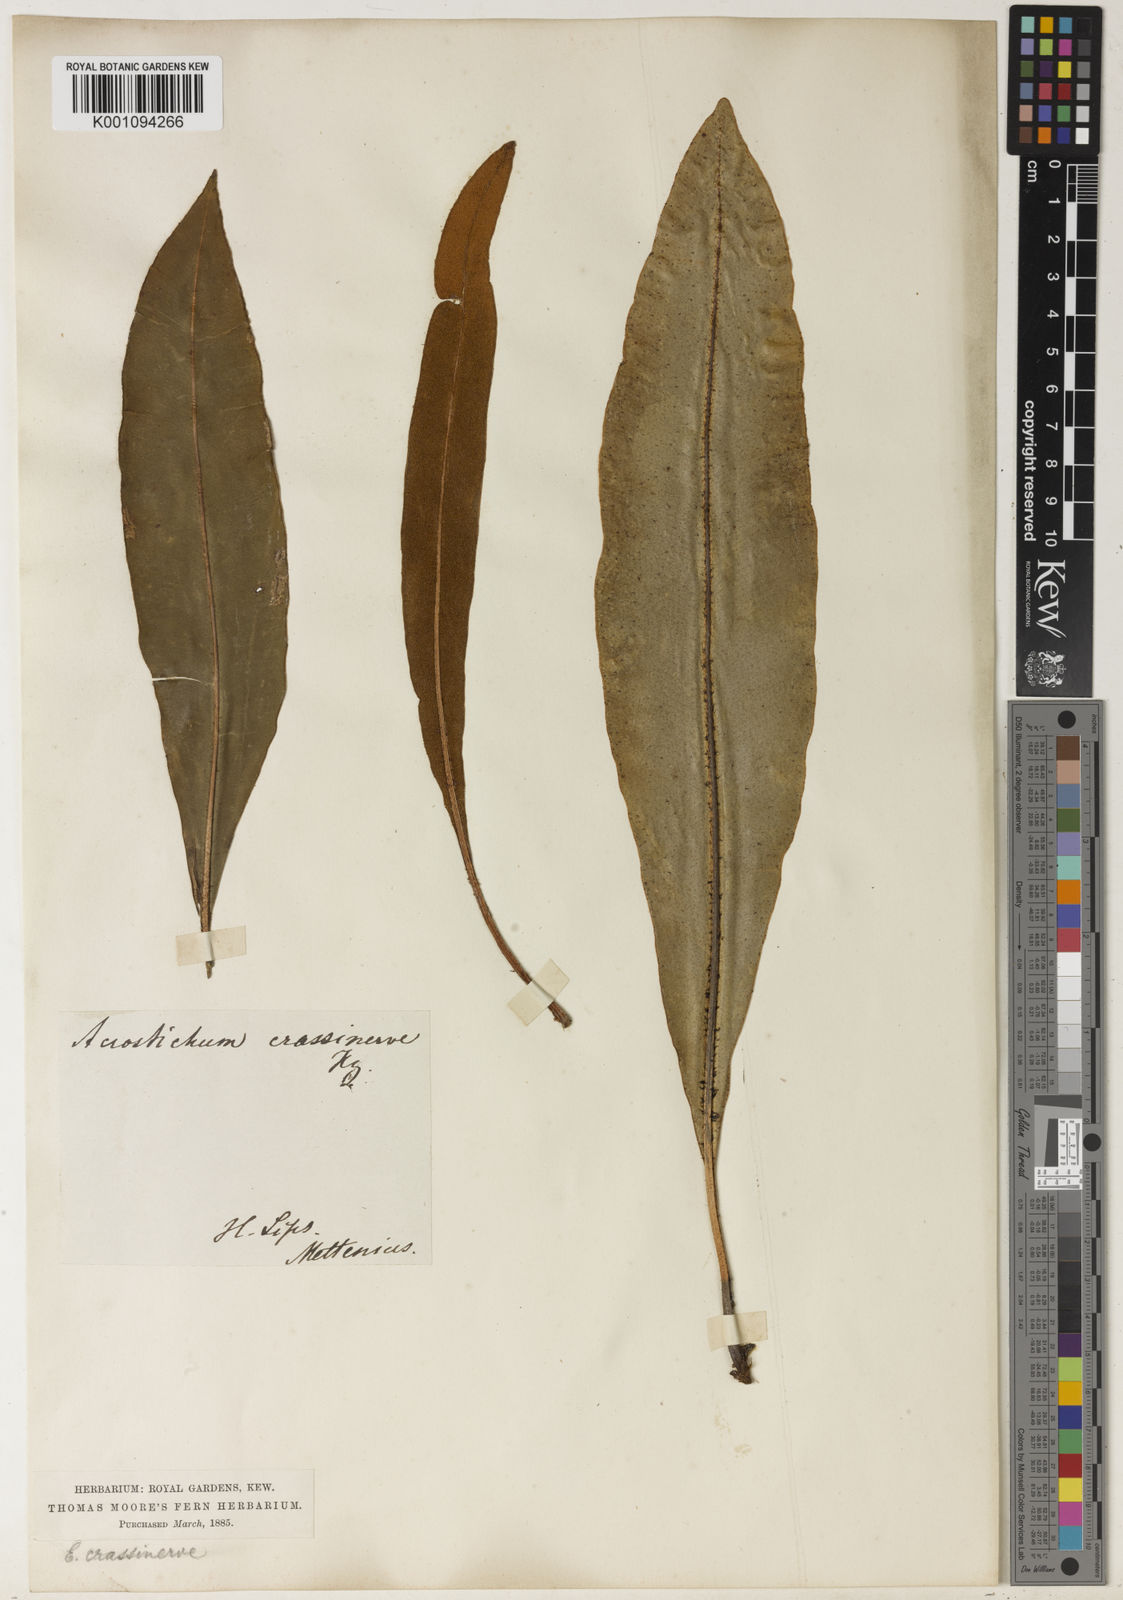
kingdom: Plantae
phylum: Tracheophyta
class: Polypodiopsida
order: Polypodiales
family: Dryopteridaceae
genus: Elaphoglossum
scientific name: Elaphoglossum crassinerve
